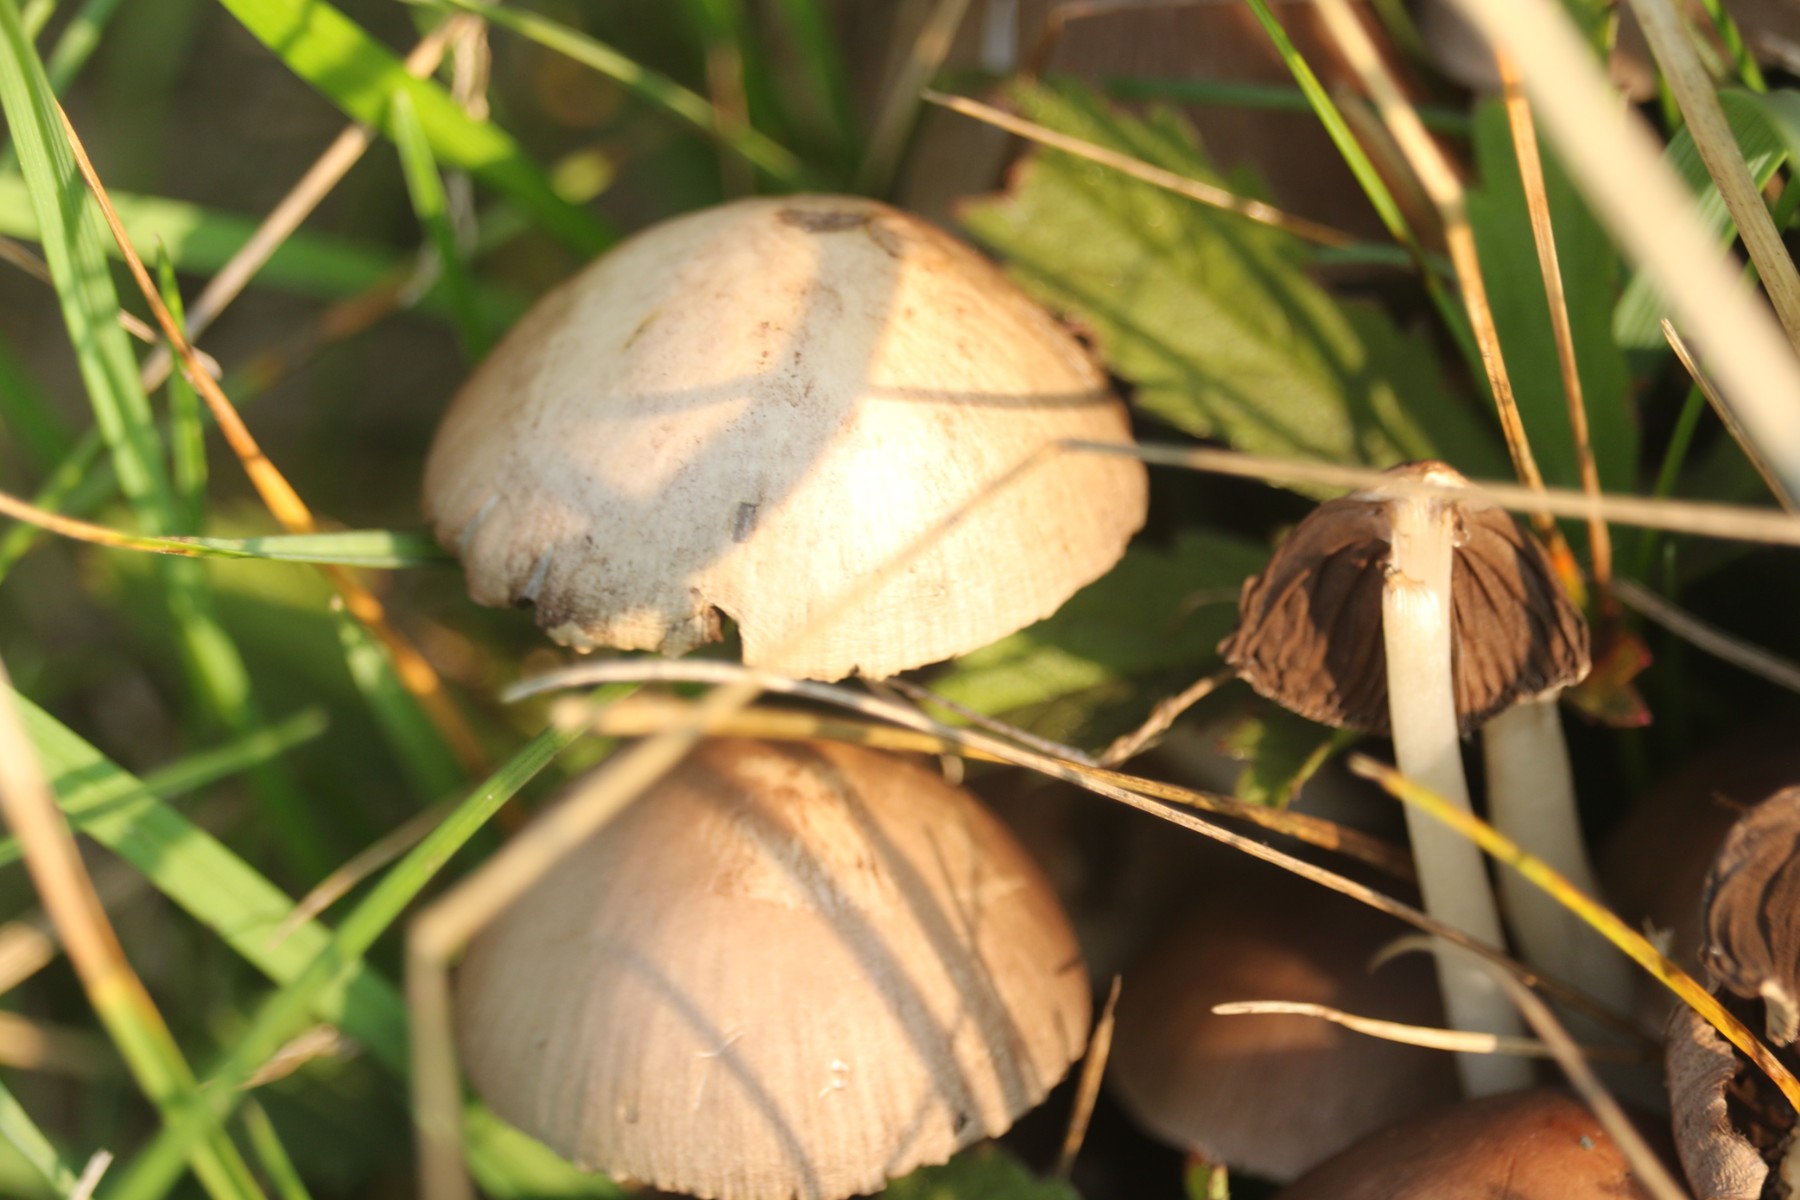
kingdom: Fungi
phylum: Basidiomycota
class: Agaricomycetes
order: Agaricales
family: Psathyrellaceae
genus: Britzelmayria
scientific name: Britzelmayria multipedata
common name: knippe-mørkhat
